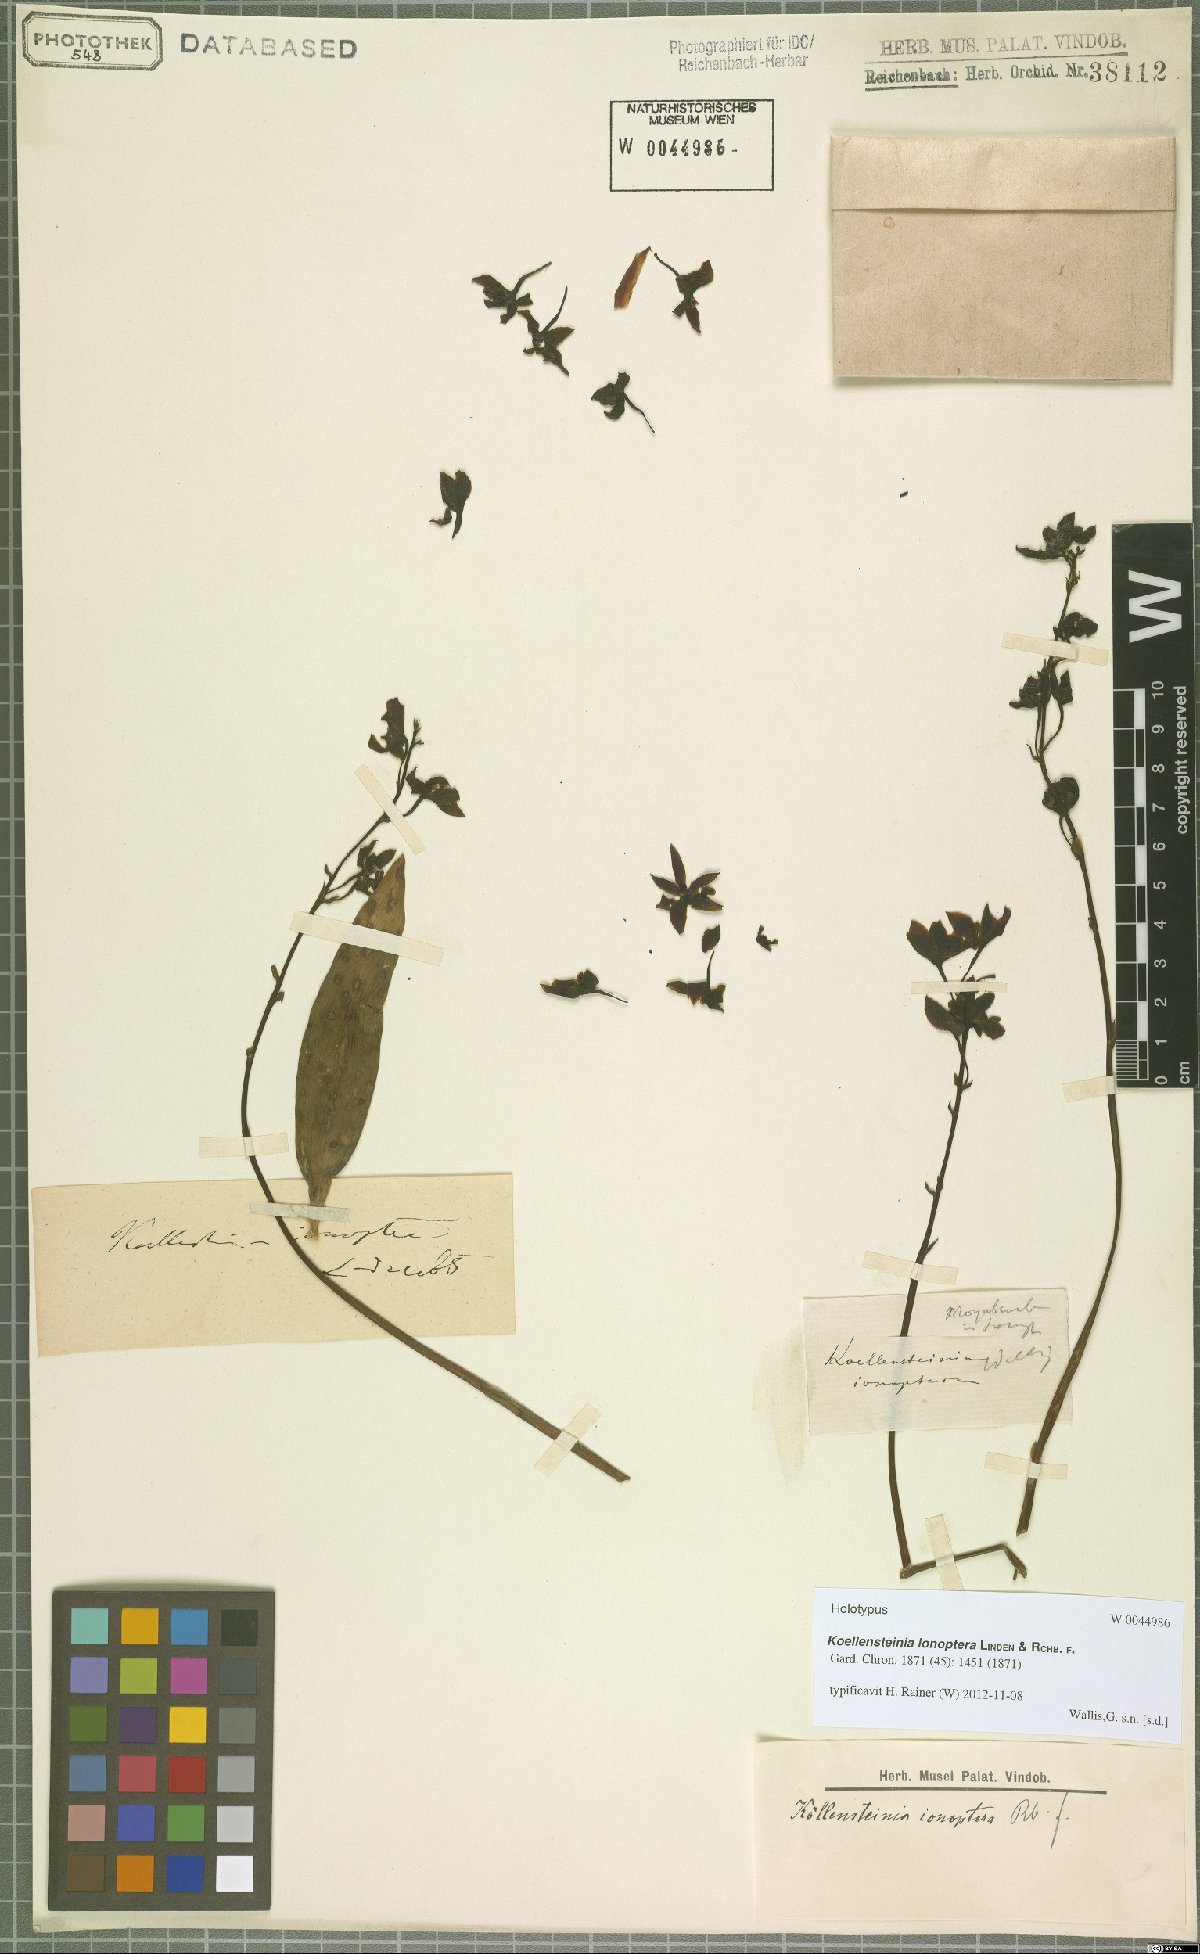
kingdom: Plantae
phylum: Tracheophyta
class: Liliopsida
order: Asparagales
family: Orchidaceae
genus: Koellensteinia
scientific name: Koellensteinia ionoptera
